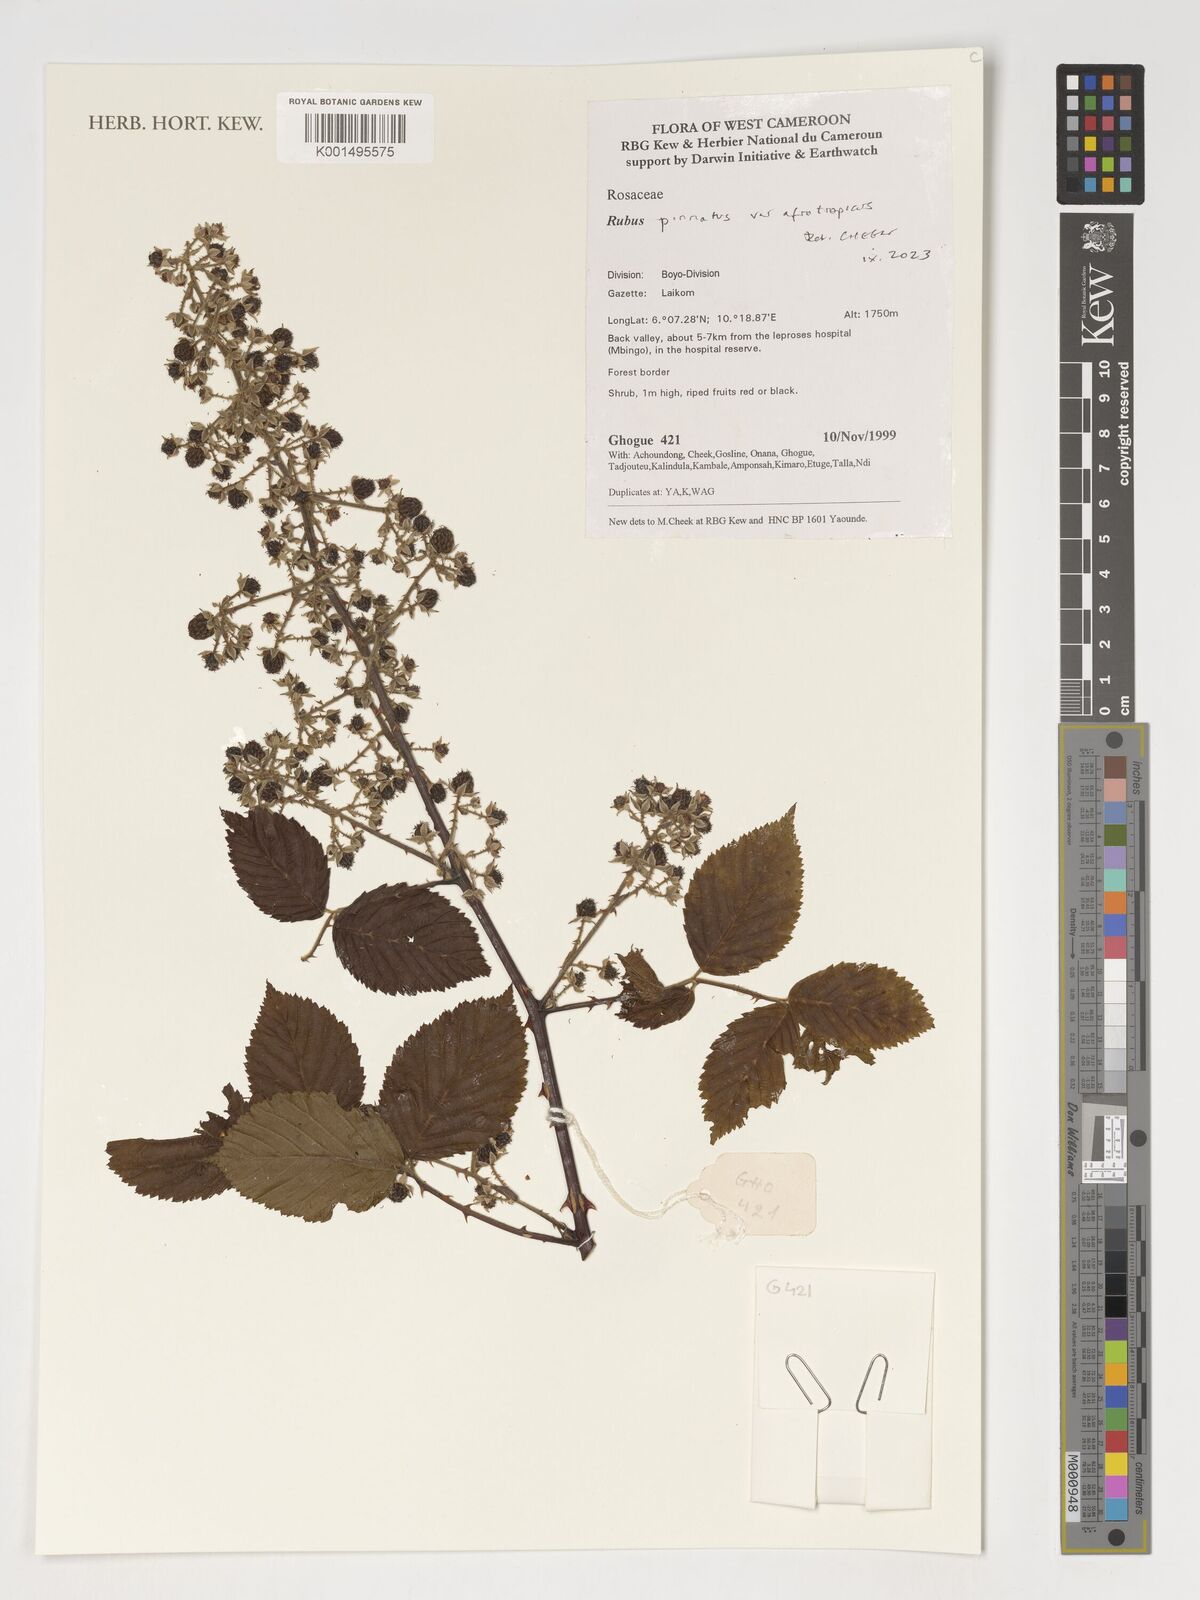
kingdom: Plantae
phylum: Tracheophyta
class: Magnoliopsida
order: Rosales
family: Rosaceae
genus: Rubus
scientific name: Rubus
